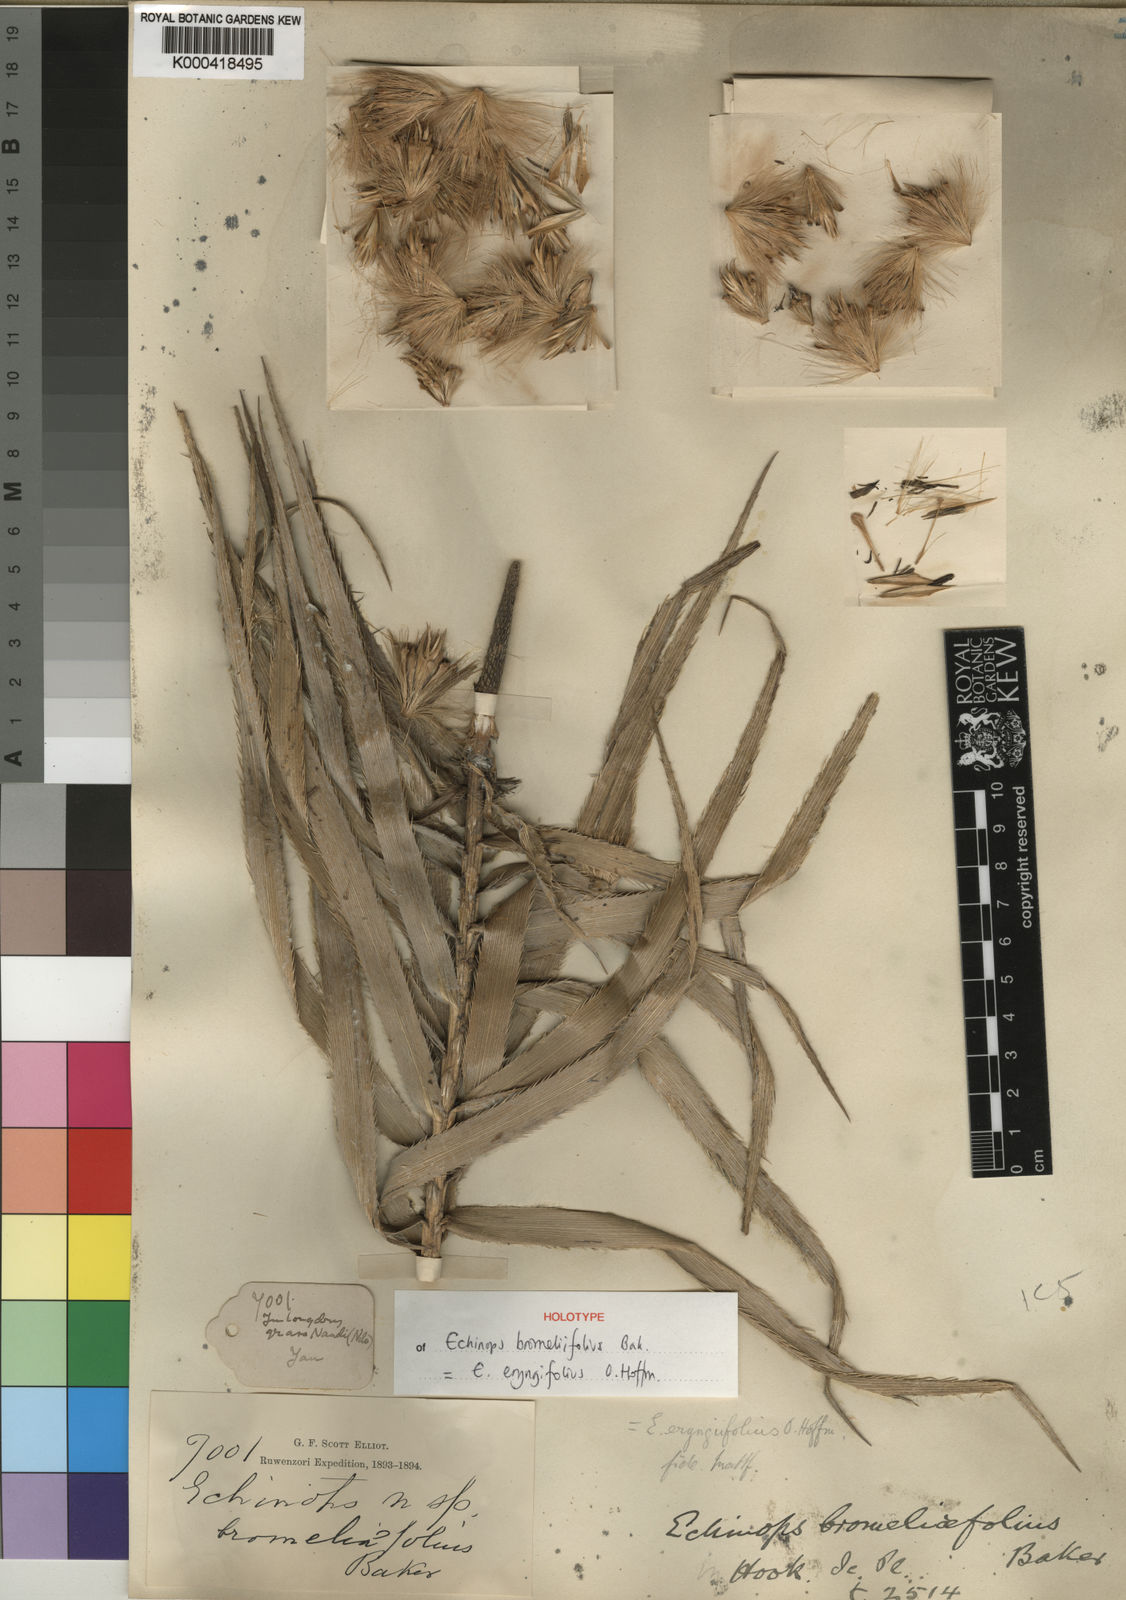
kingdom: Plantae
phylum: Tracheophyta
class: Magnoliopsida
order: Asterales
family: Asteraceae
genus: Echinops
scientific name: Echinops eryngiifolius
